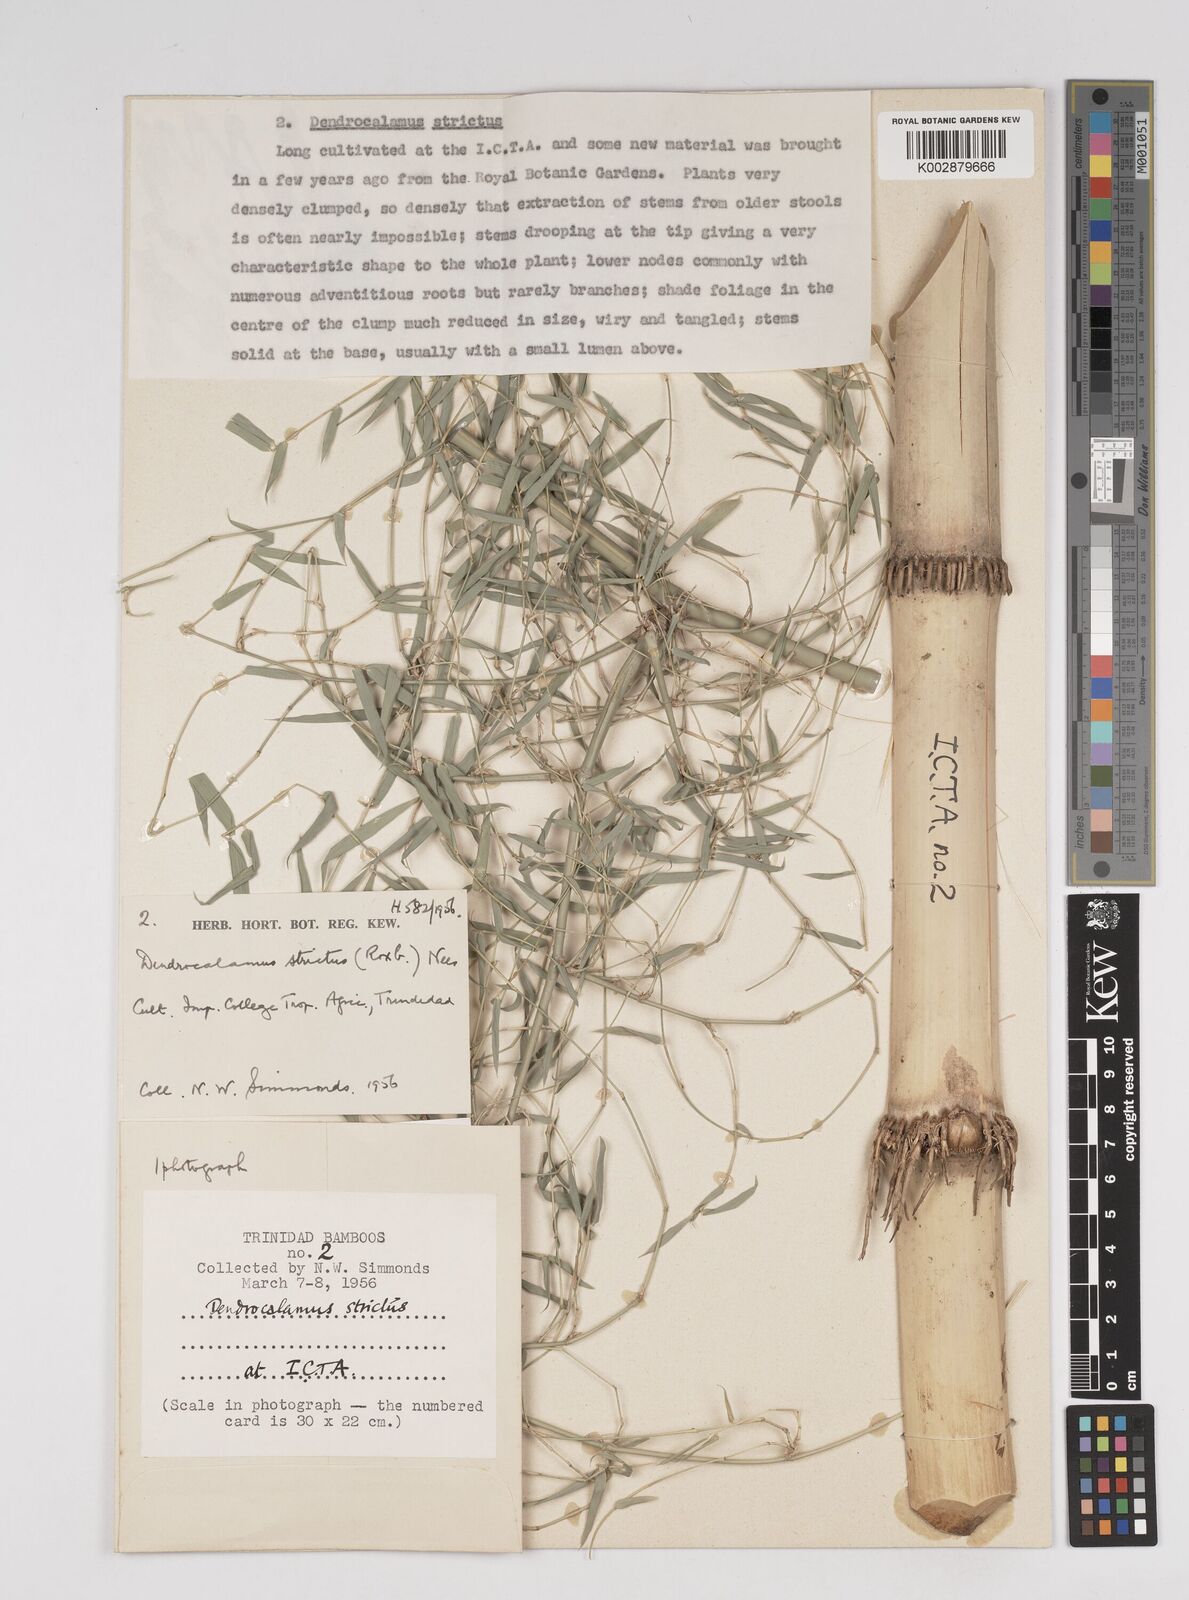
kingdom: Plantae
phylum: Tracheophyta
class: Liliopsida
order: Poales
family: Poaceae
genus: Dendrocalamus
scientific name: Dendrocalamus strictus
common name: Male bamboo
